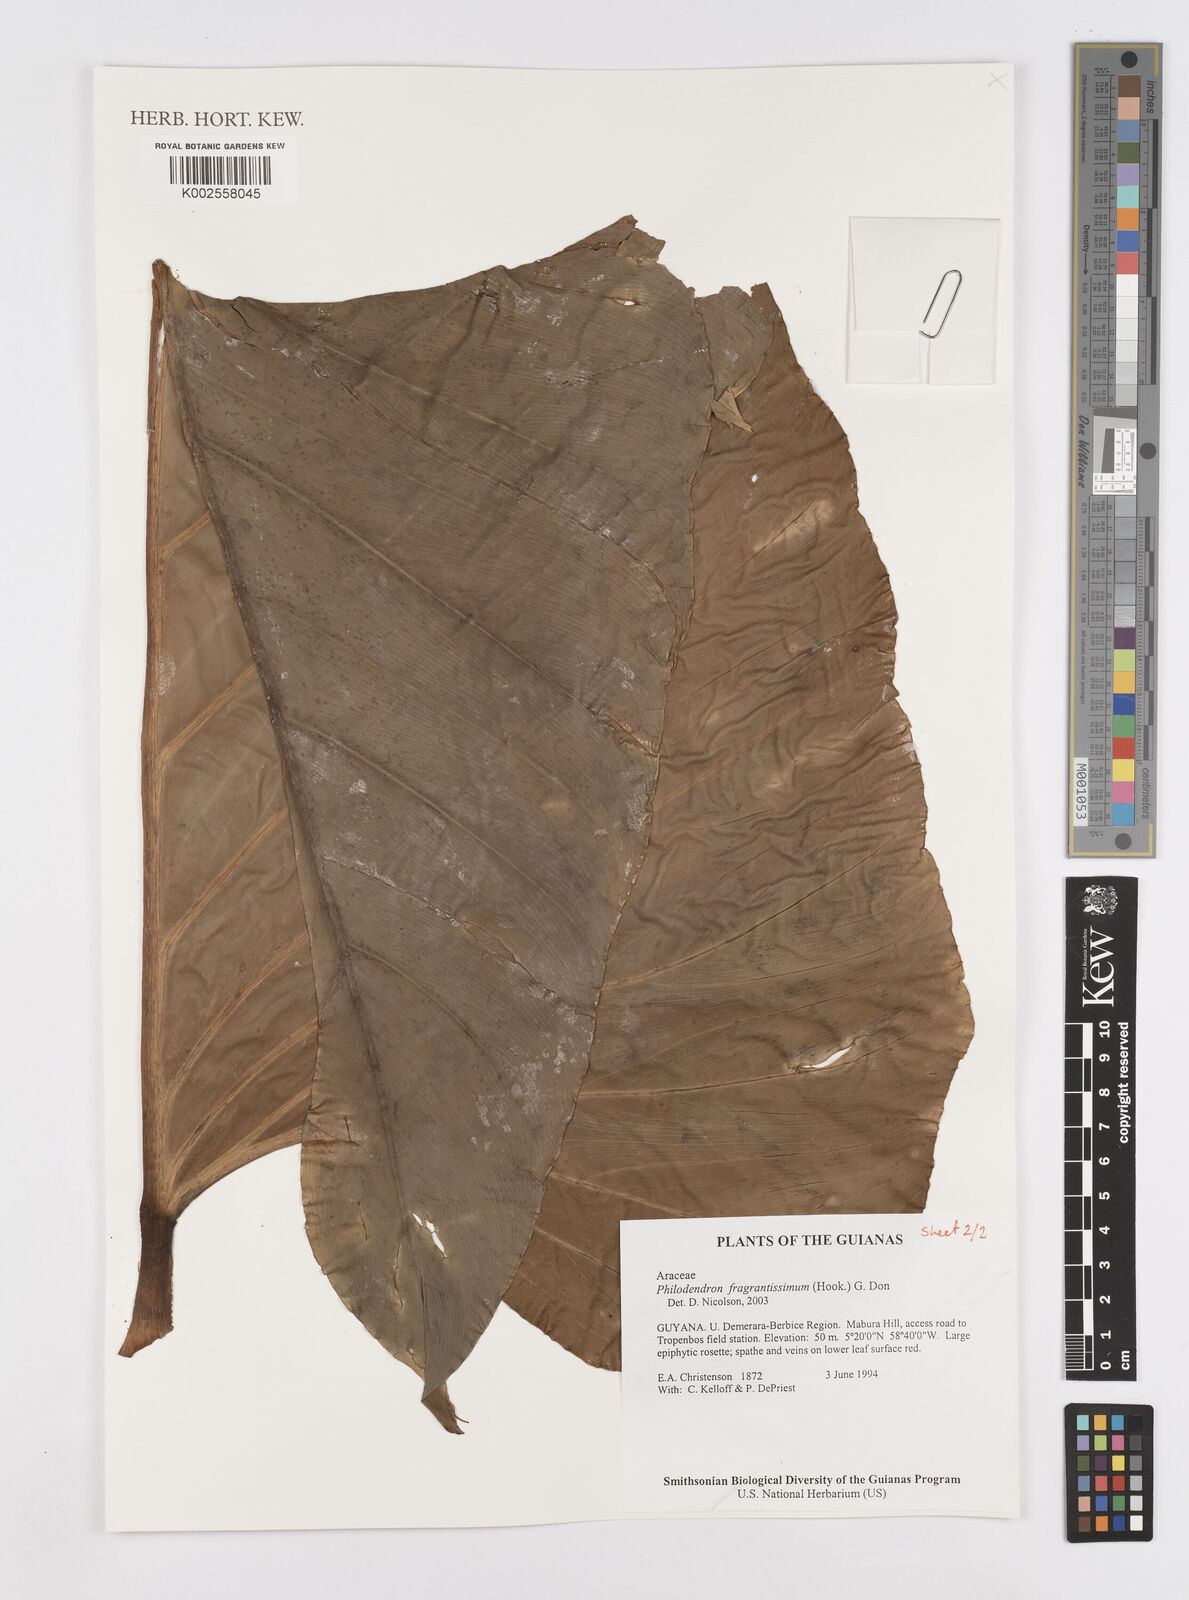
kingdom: Plantae
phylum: Tracheophyta
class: Liliopsida
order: Alismatales
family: Araceae
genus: Philodendron
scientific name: Philodendron fragrantissimum
